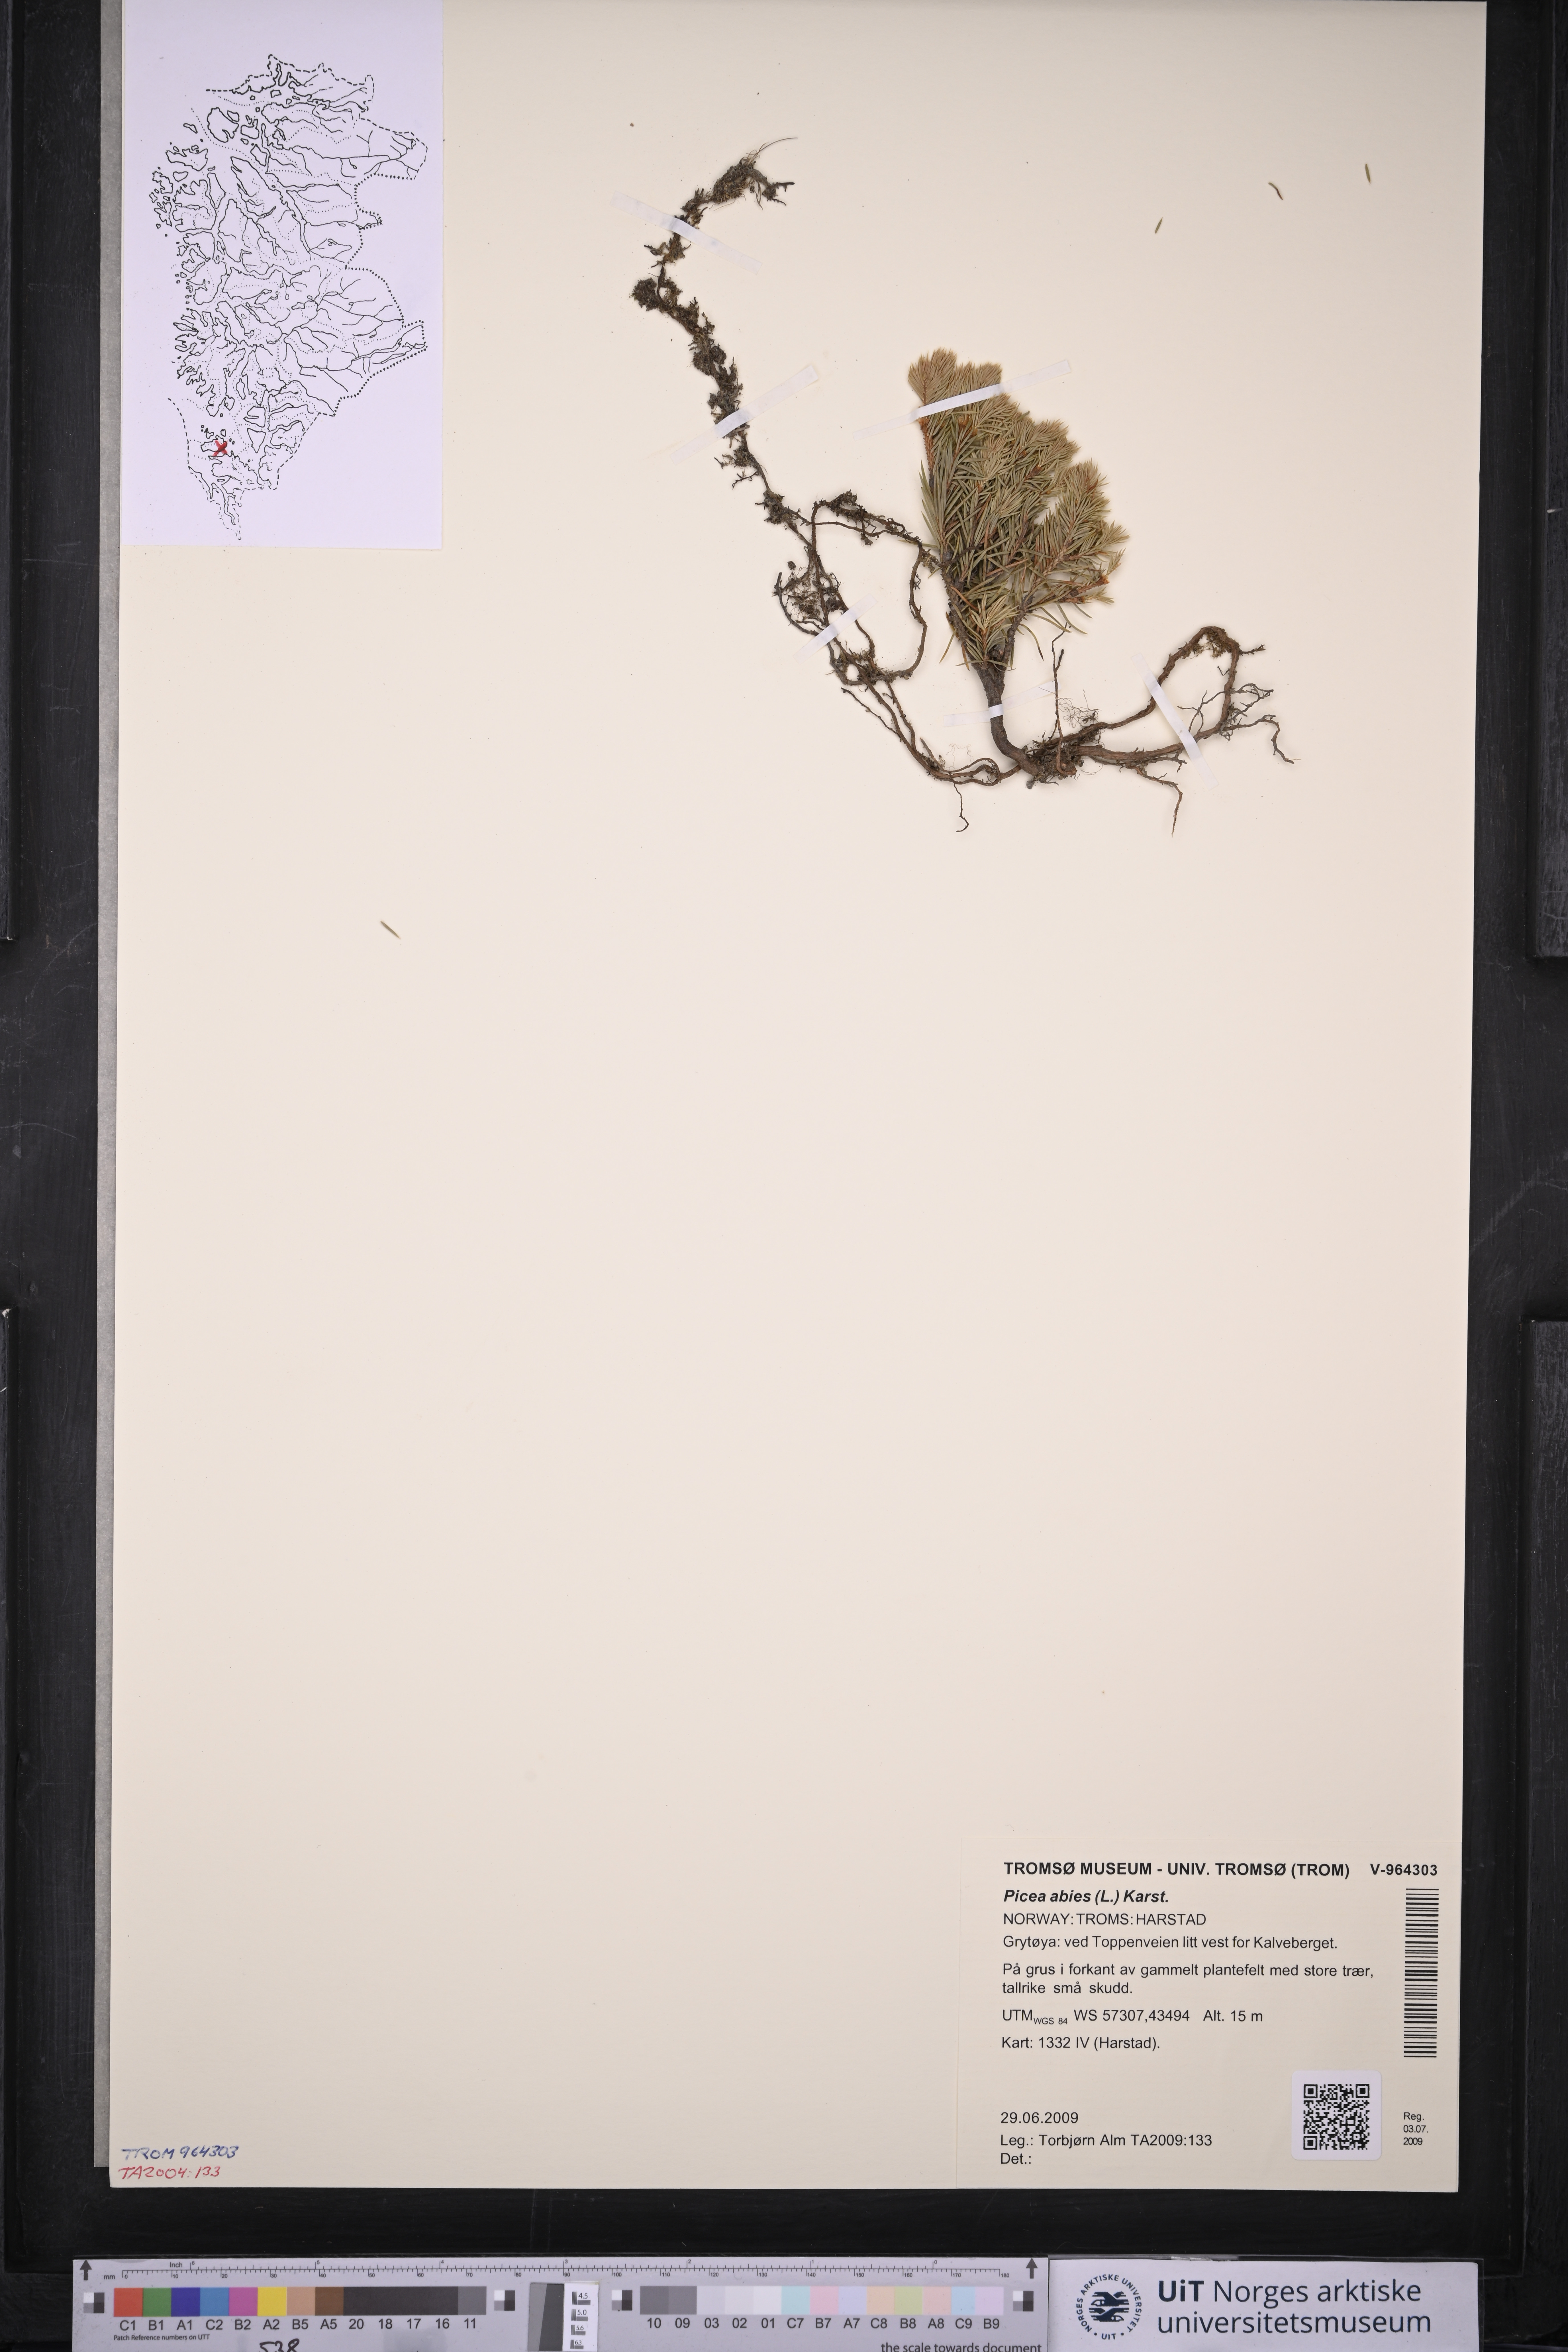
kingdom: Plantae
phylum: Tracheophyta
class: Pinopsida
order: Pinales
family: Pinaceae
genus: Picea
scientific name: Picea abies
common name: Norway spruce
